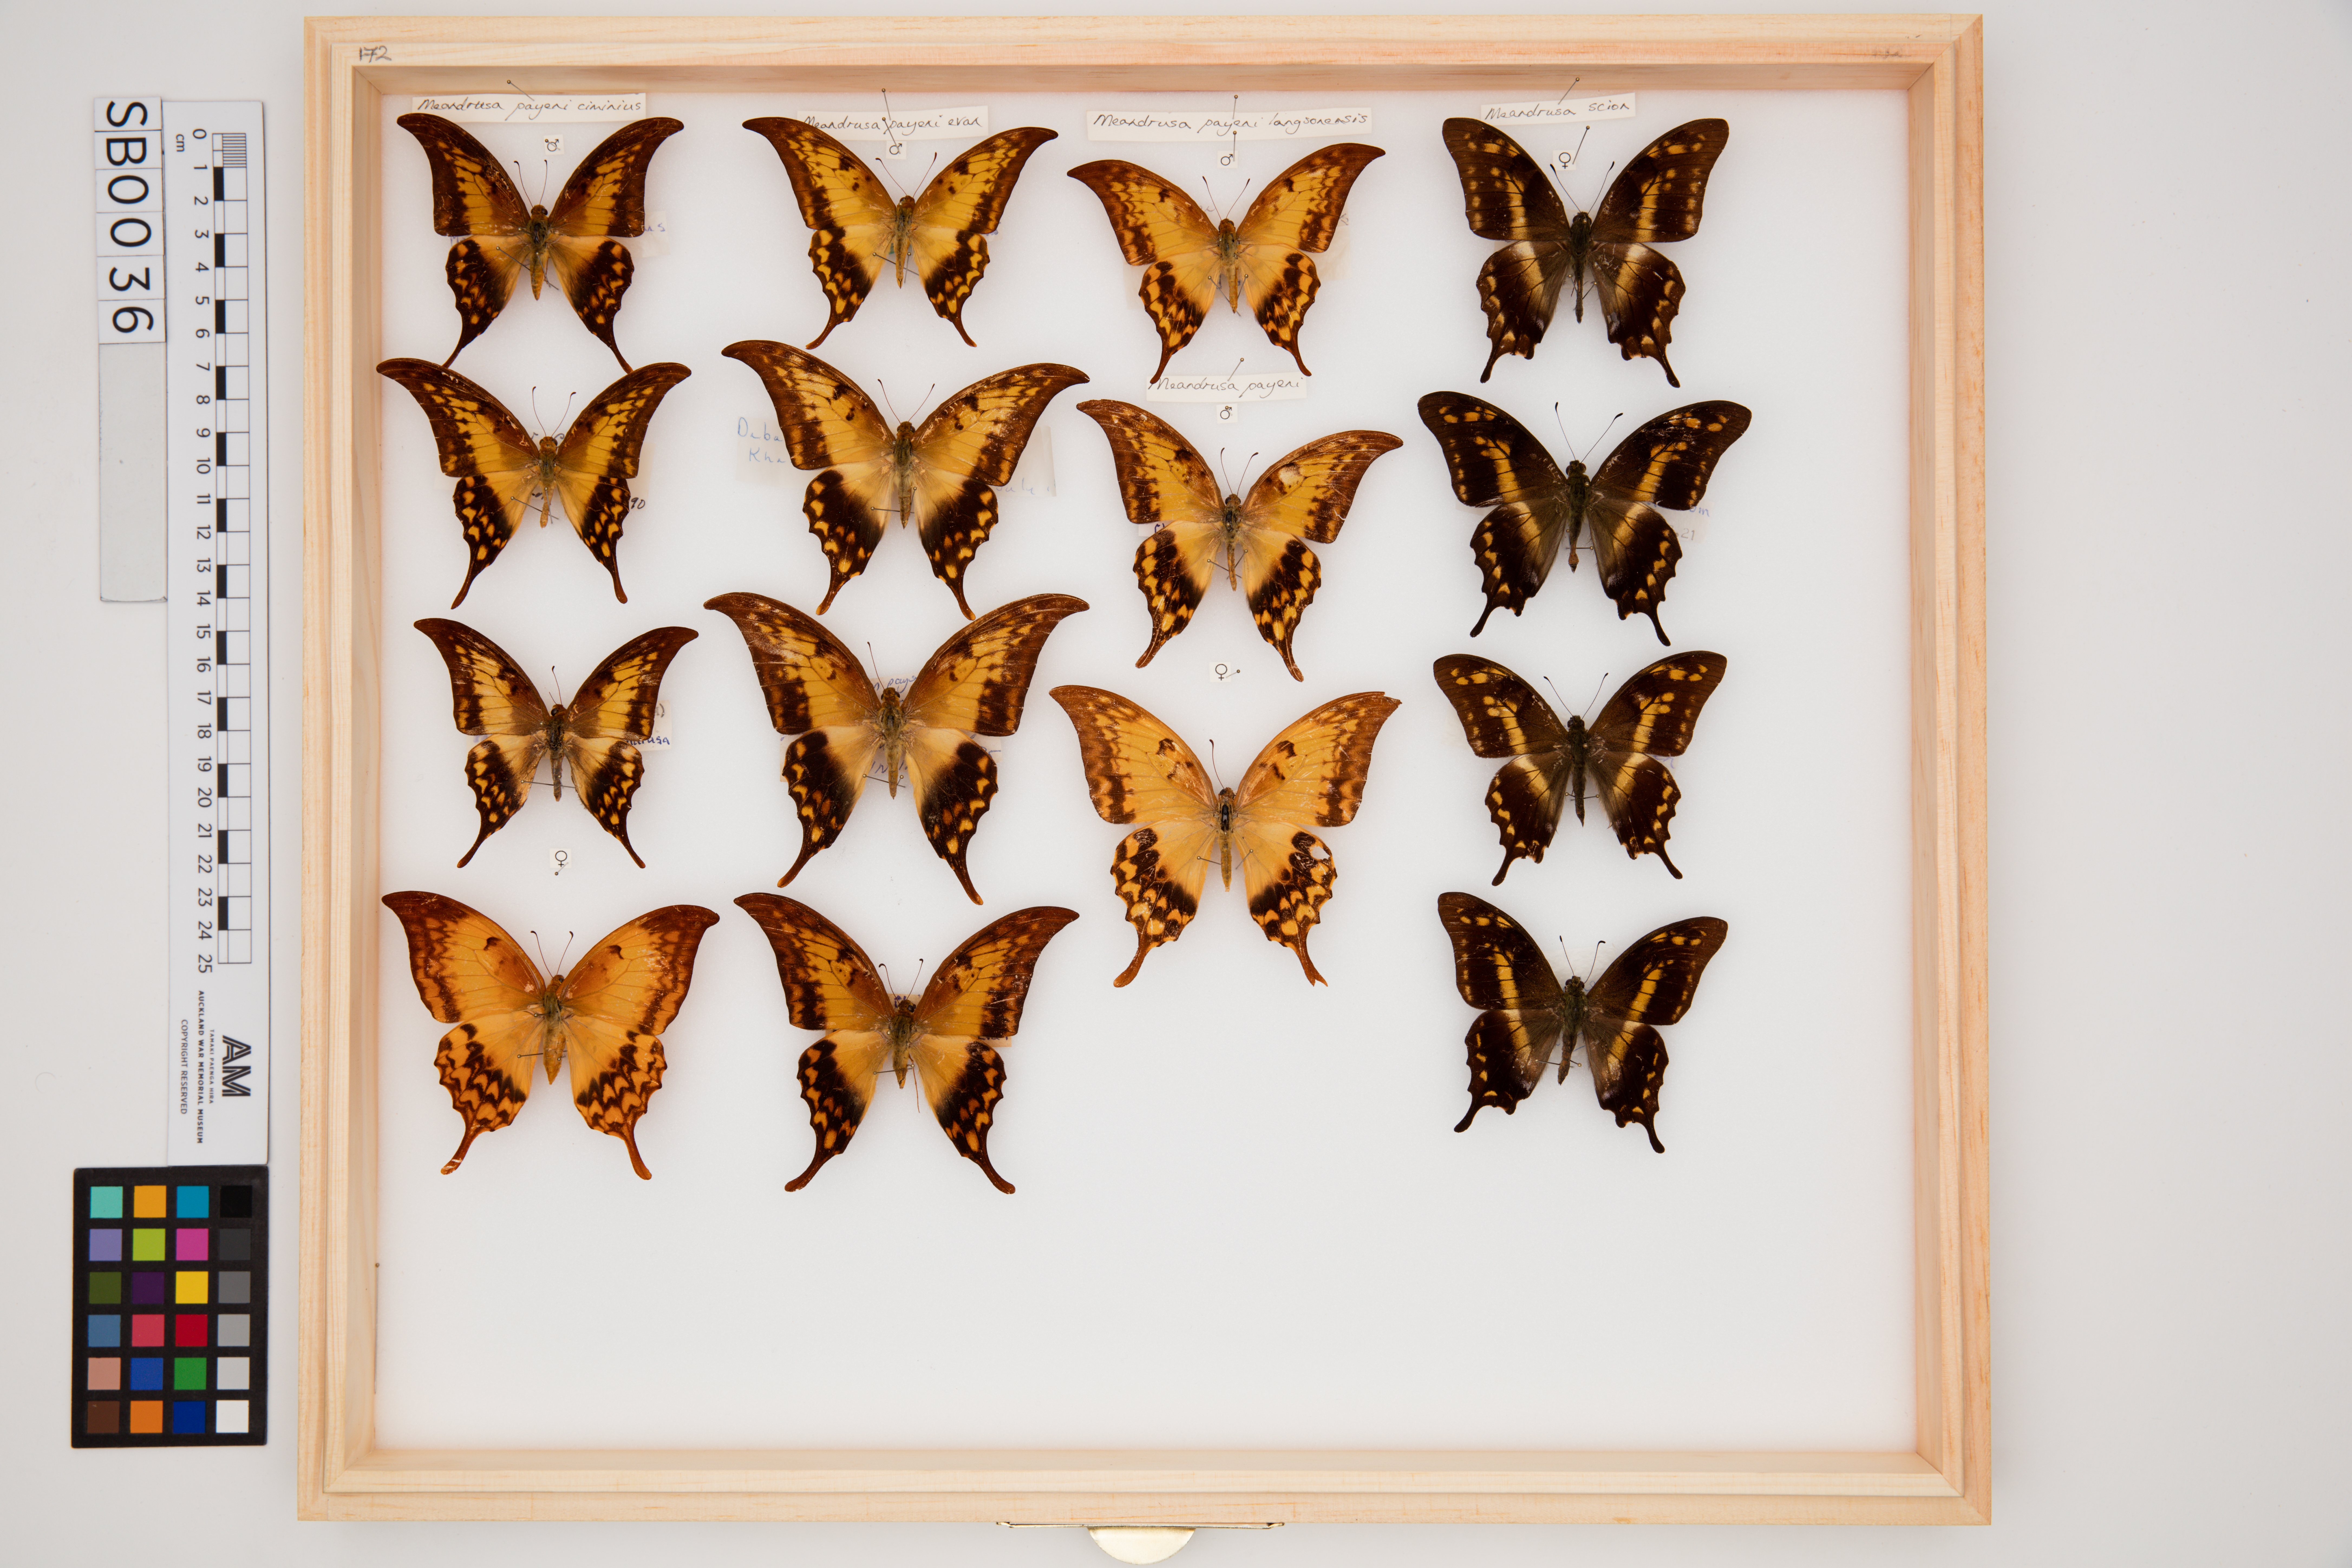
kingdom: Animalia
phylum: Arthropoda
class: Insecta
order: Lepidoptera
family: Papilionidae
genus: Meandrusa
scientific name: Meandrusa payeni
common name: Outlet sword
